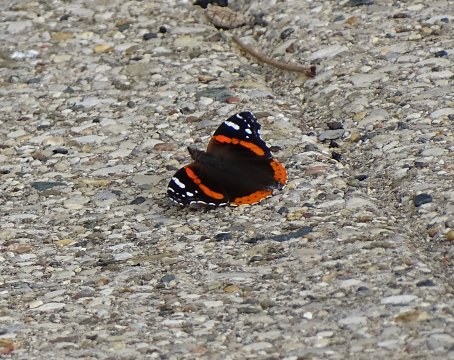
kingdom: Animalia
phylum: Arthropoda
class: Insecta
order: Lepidoptera
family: Nymphalidae
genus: Vanessa
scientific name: Vanessa atalanta
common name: Red Admiral
